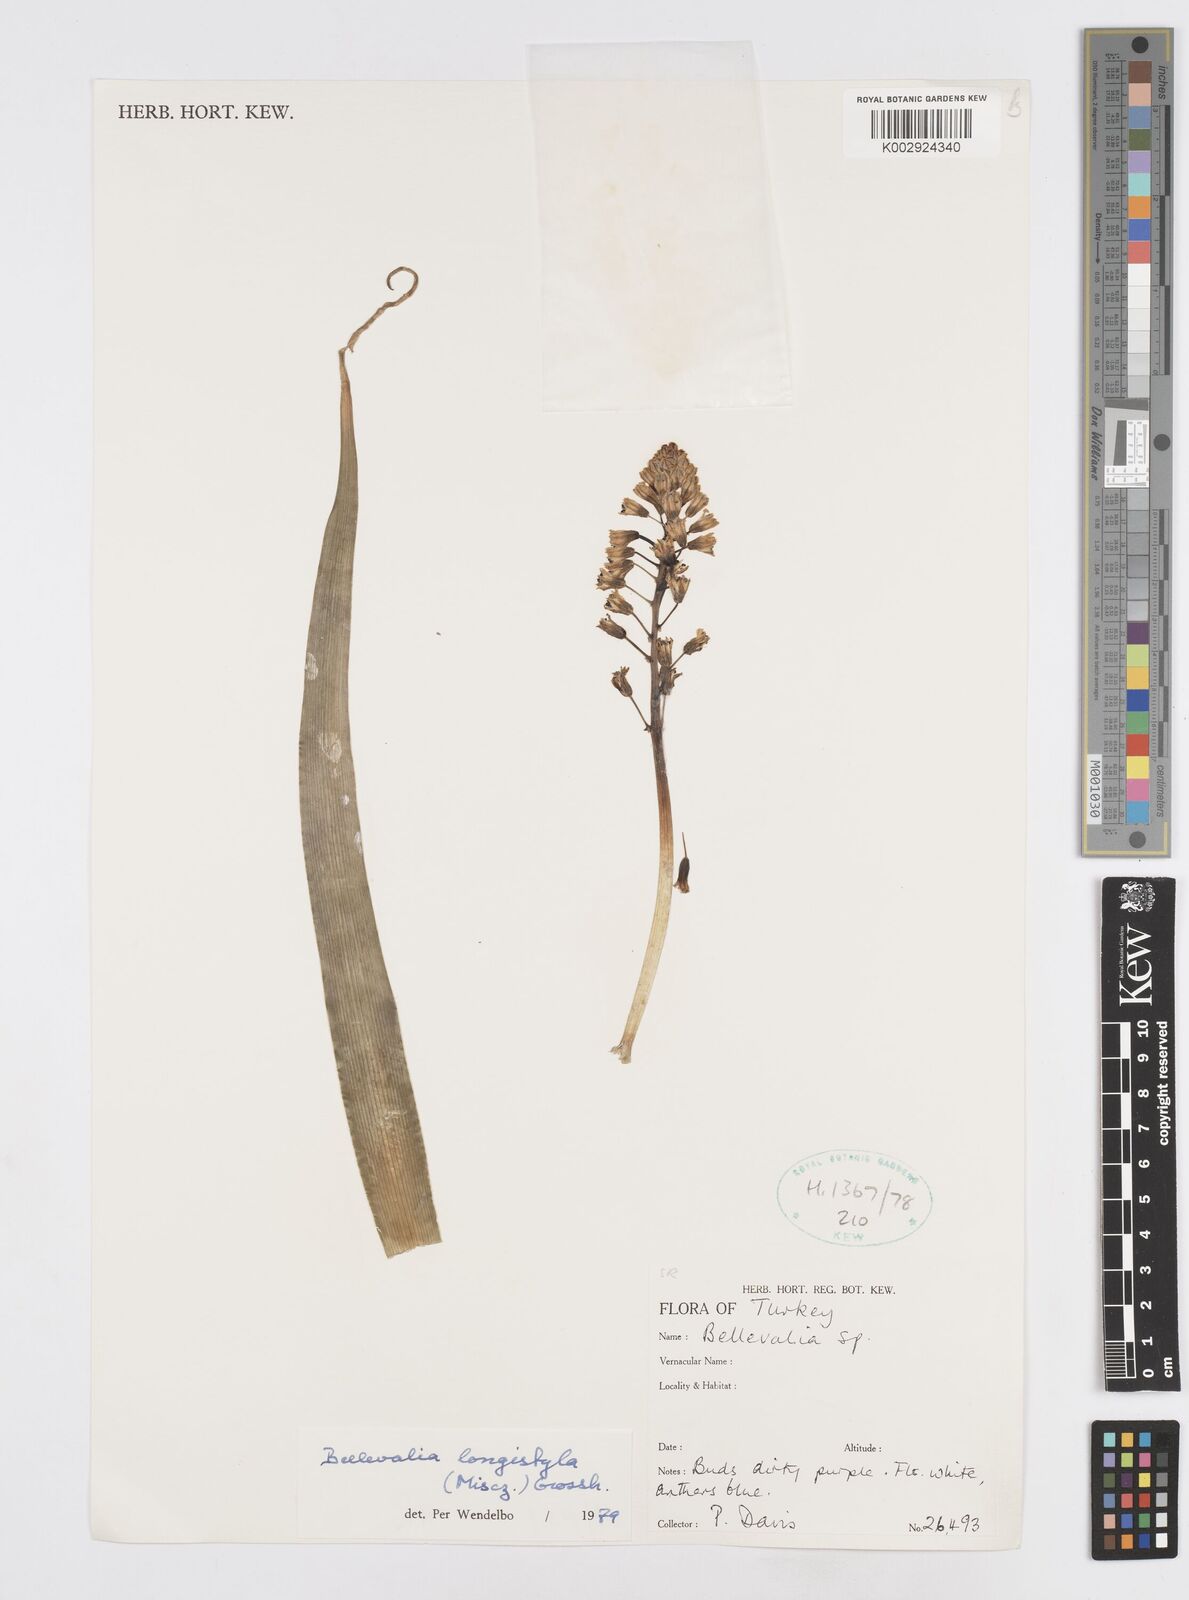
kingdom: Plantae
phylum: Tracheophyta
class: Liliopsida
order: Asparagales
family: Asparagaceae
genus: Bellevalia
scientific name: Bellevalia longistyla
